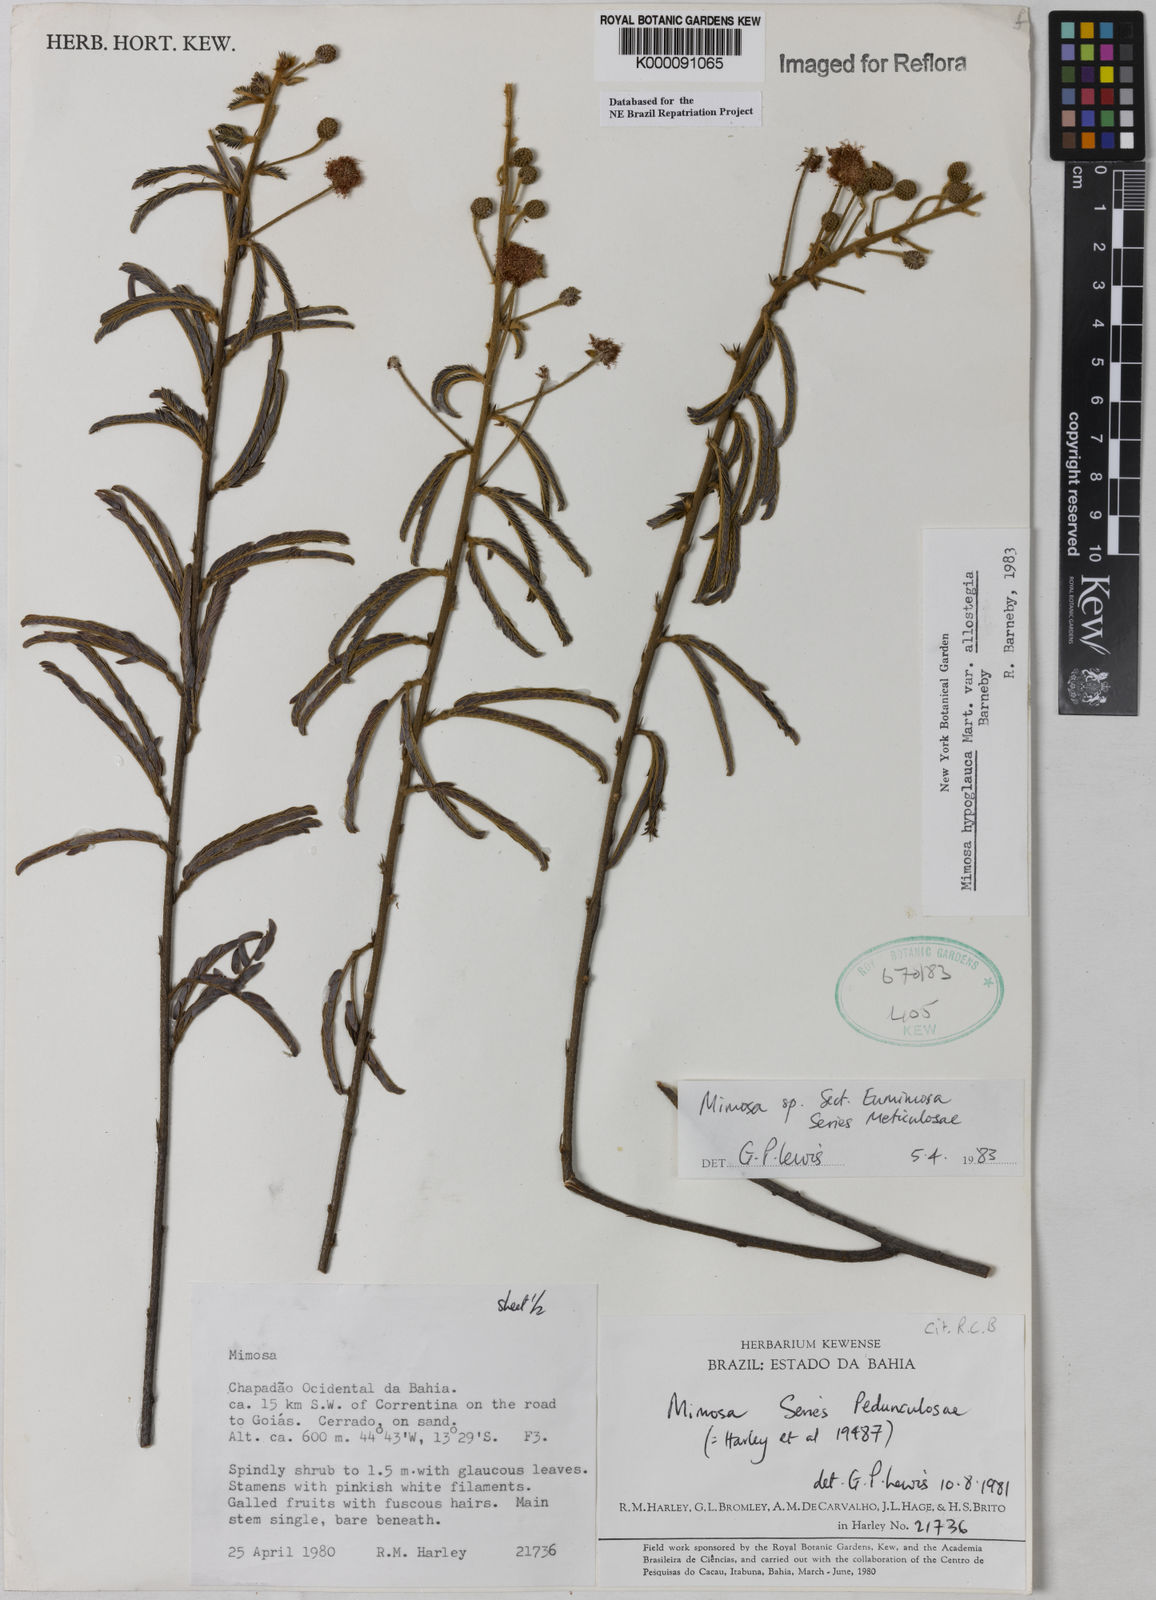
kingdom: Plantae
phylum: Tracheophyta
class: Magnoliopsida
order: Fabales
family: Fabaceae
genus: Mimosa
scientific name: Mimosa hypoglauca
